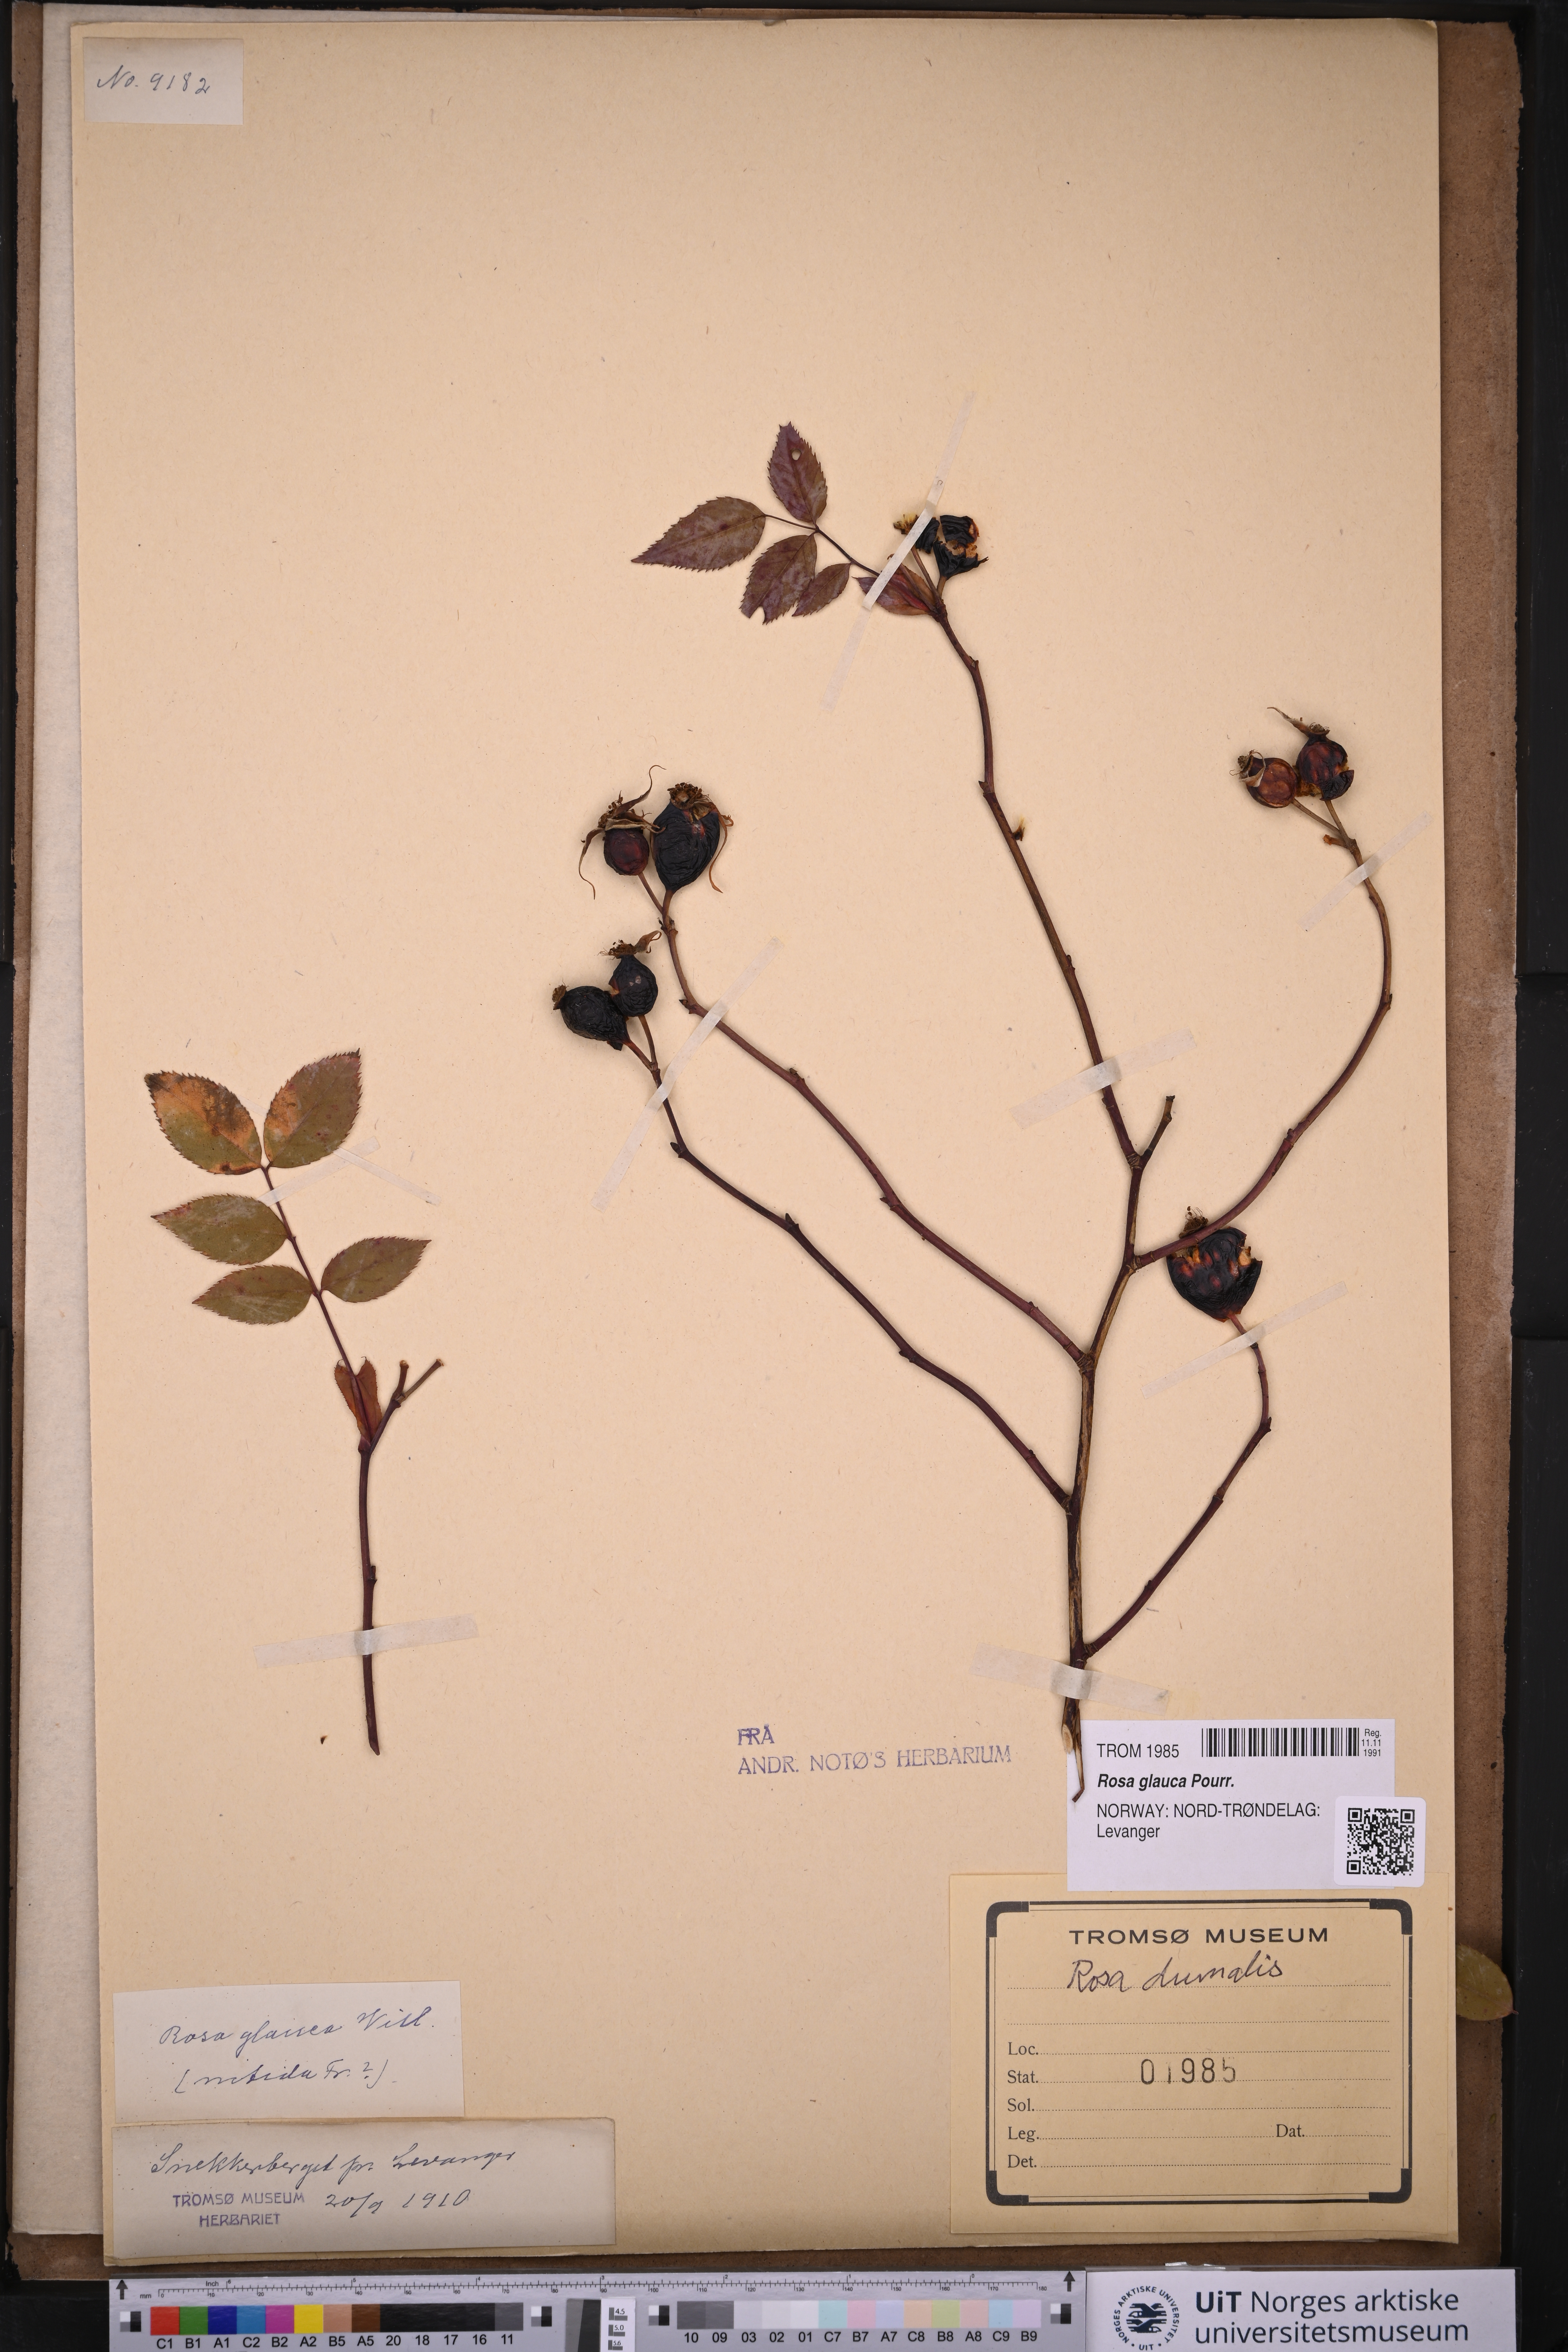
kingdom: Plantae
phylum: Tracheophyta
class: Magnoliopsida
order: Rosales
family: Rosaceae
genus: Rosa
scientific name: Rosa glauca
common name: Redleaf rose
